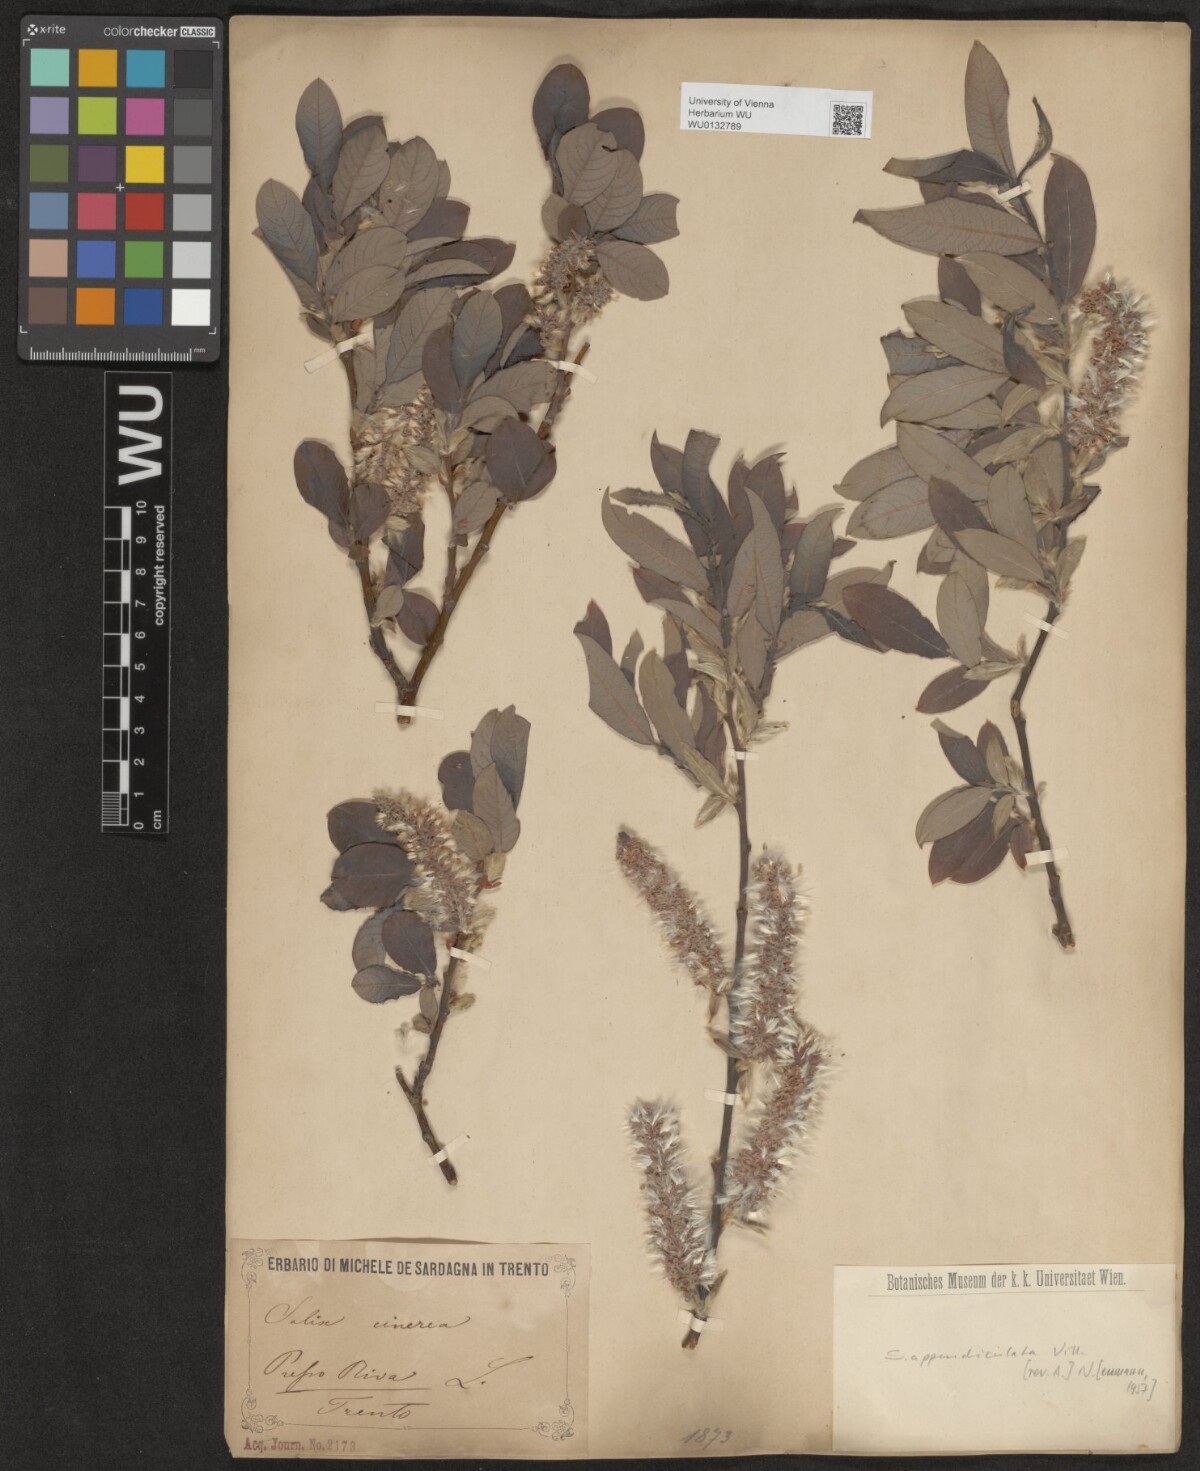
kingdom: Plantae
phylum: Tracheophyta
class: Magnoliopsida
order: Malpighiales
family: Salicaceae
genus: Salix
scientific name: Salix appendiculata
